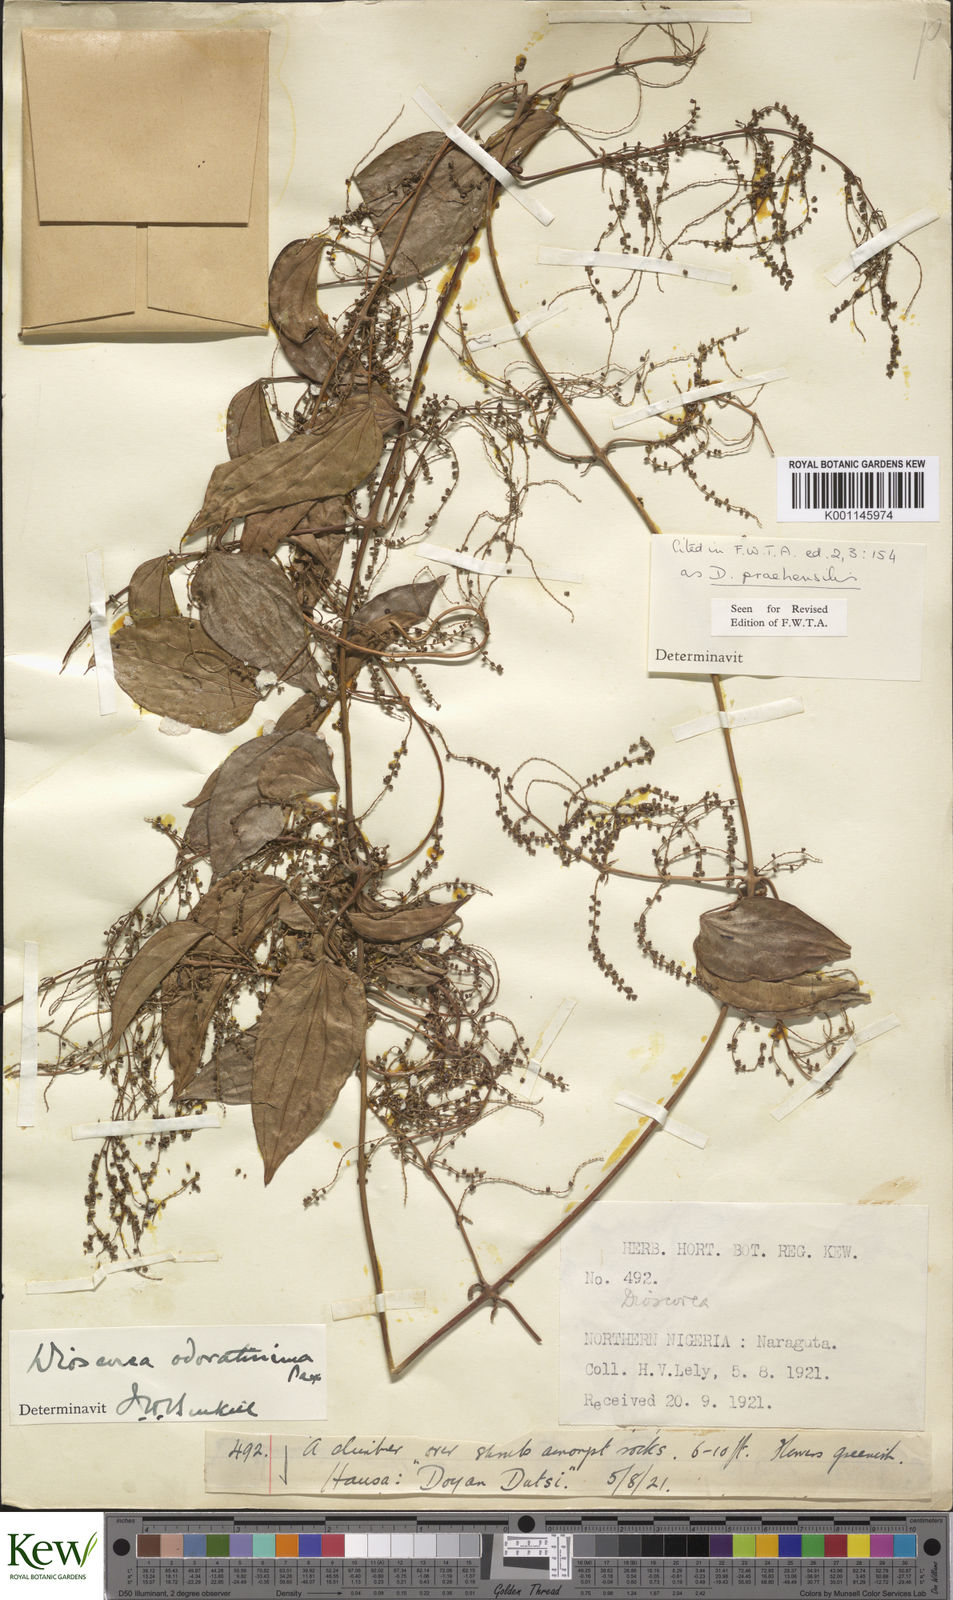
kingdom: Plantae
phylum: Tracheophyta
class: Liliopsida
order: Dioscoreales
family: Dioscoreaceae
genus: Dioscorea
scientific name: Dioscorea praehensilis
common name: Bush yam
